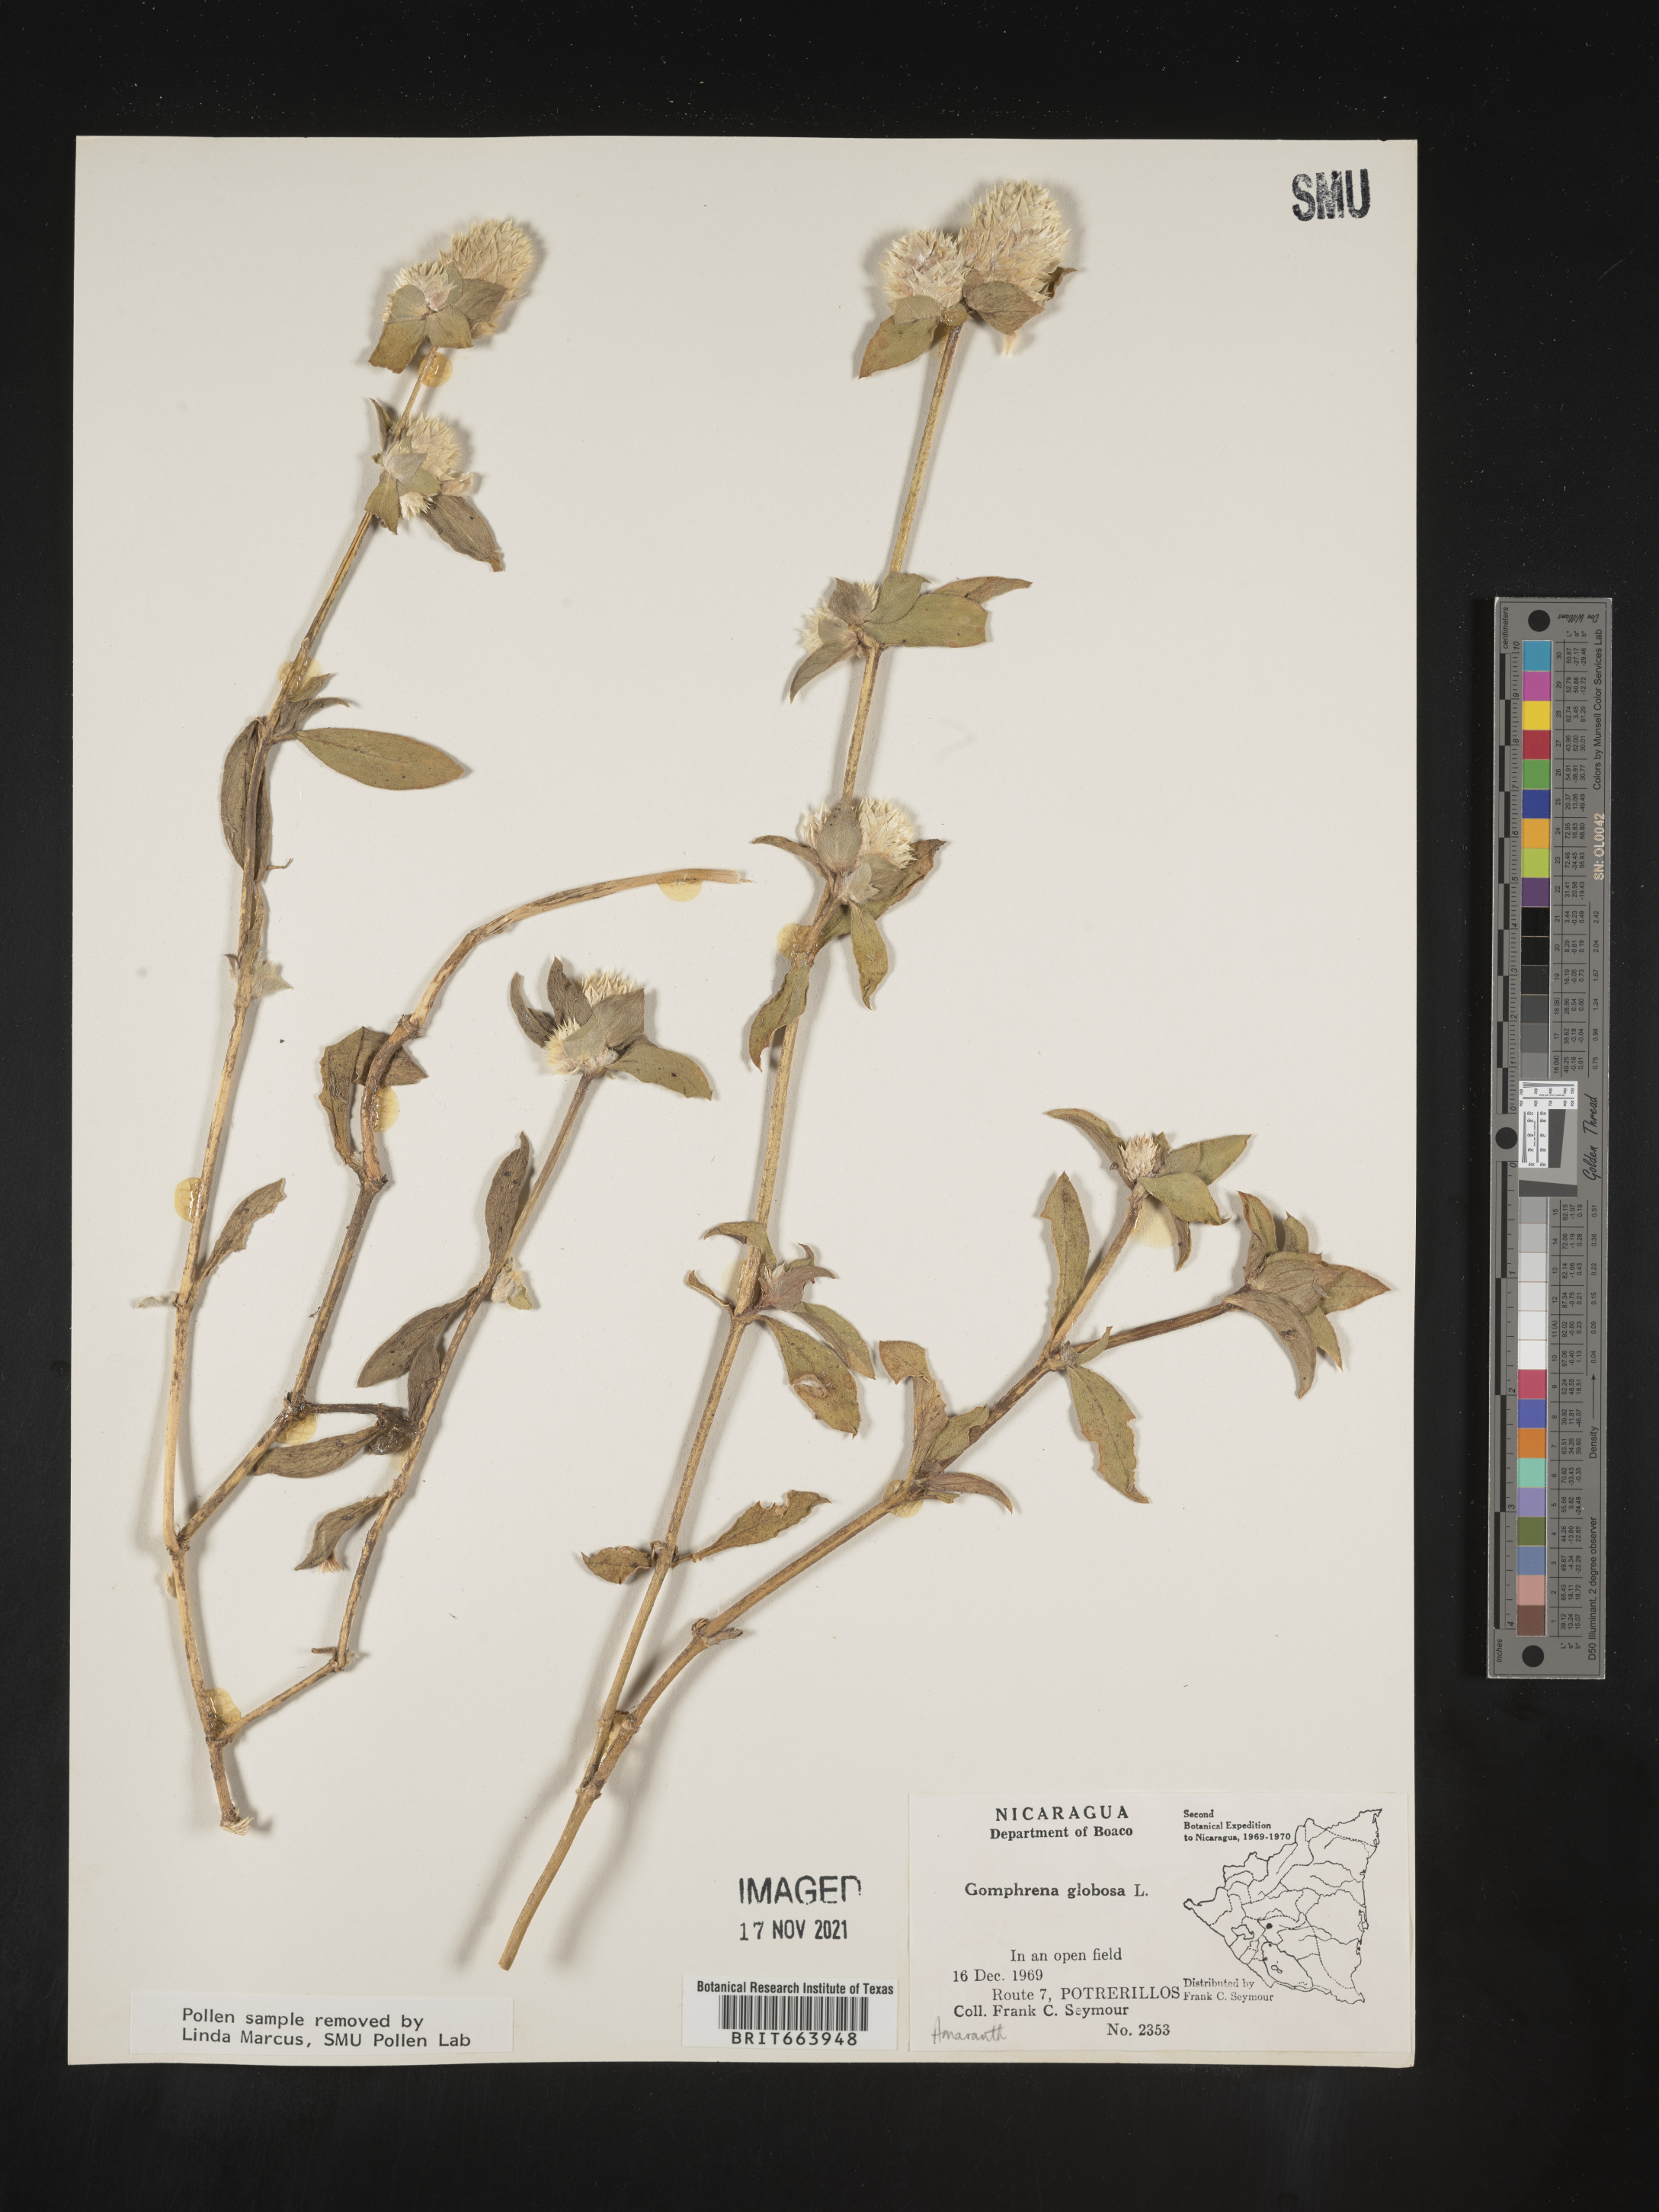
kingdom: Plantae
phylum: Tracheophyta
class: Magnoliopsida
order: Caryophyllales
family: Amaranthaceae
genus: Gomphrena
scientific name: Gomphrena
